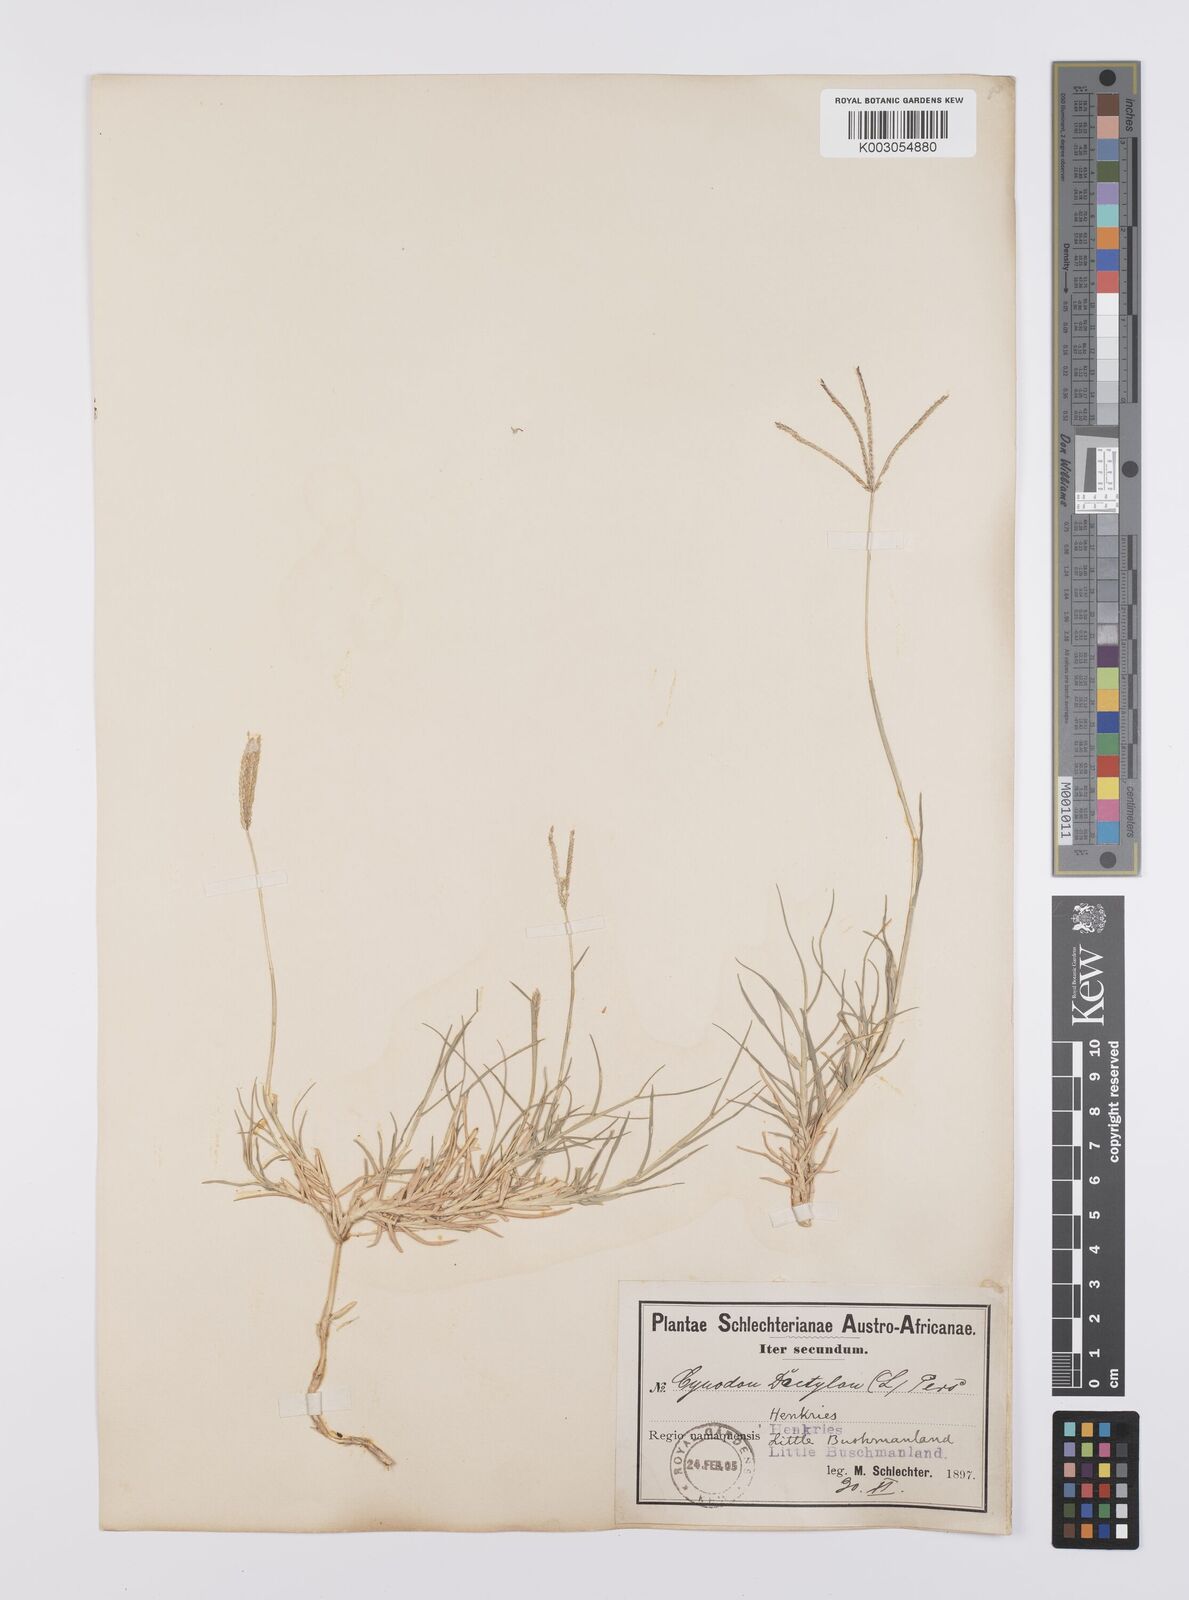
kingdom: Plantae
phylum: Tracheophyta
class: Liliopsida
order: Poales
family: Poaceae
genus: Cynodon
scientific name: Cynodon dactylon
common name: Bermuda grass
